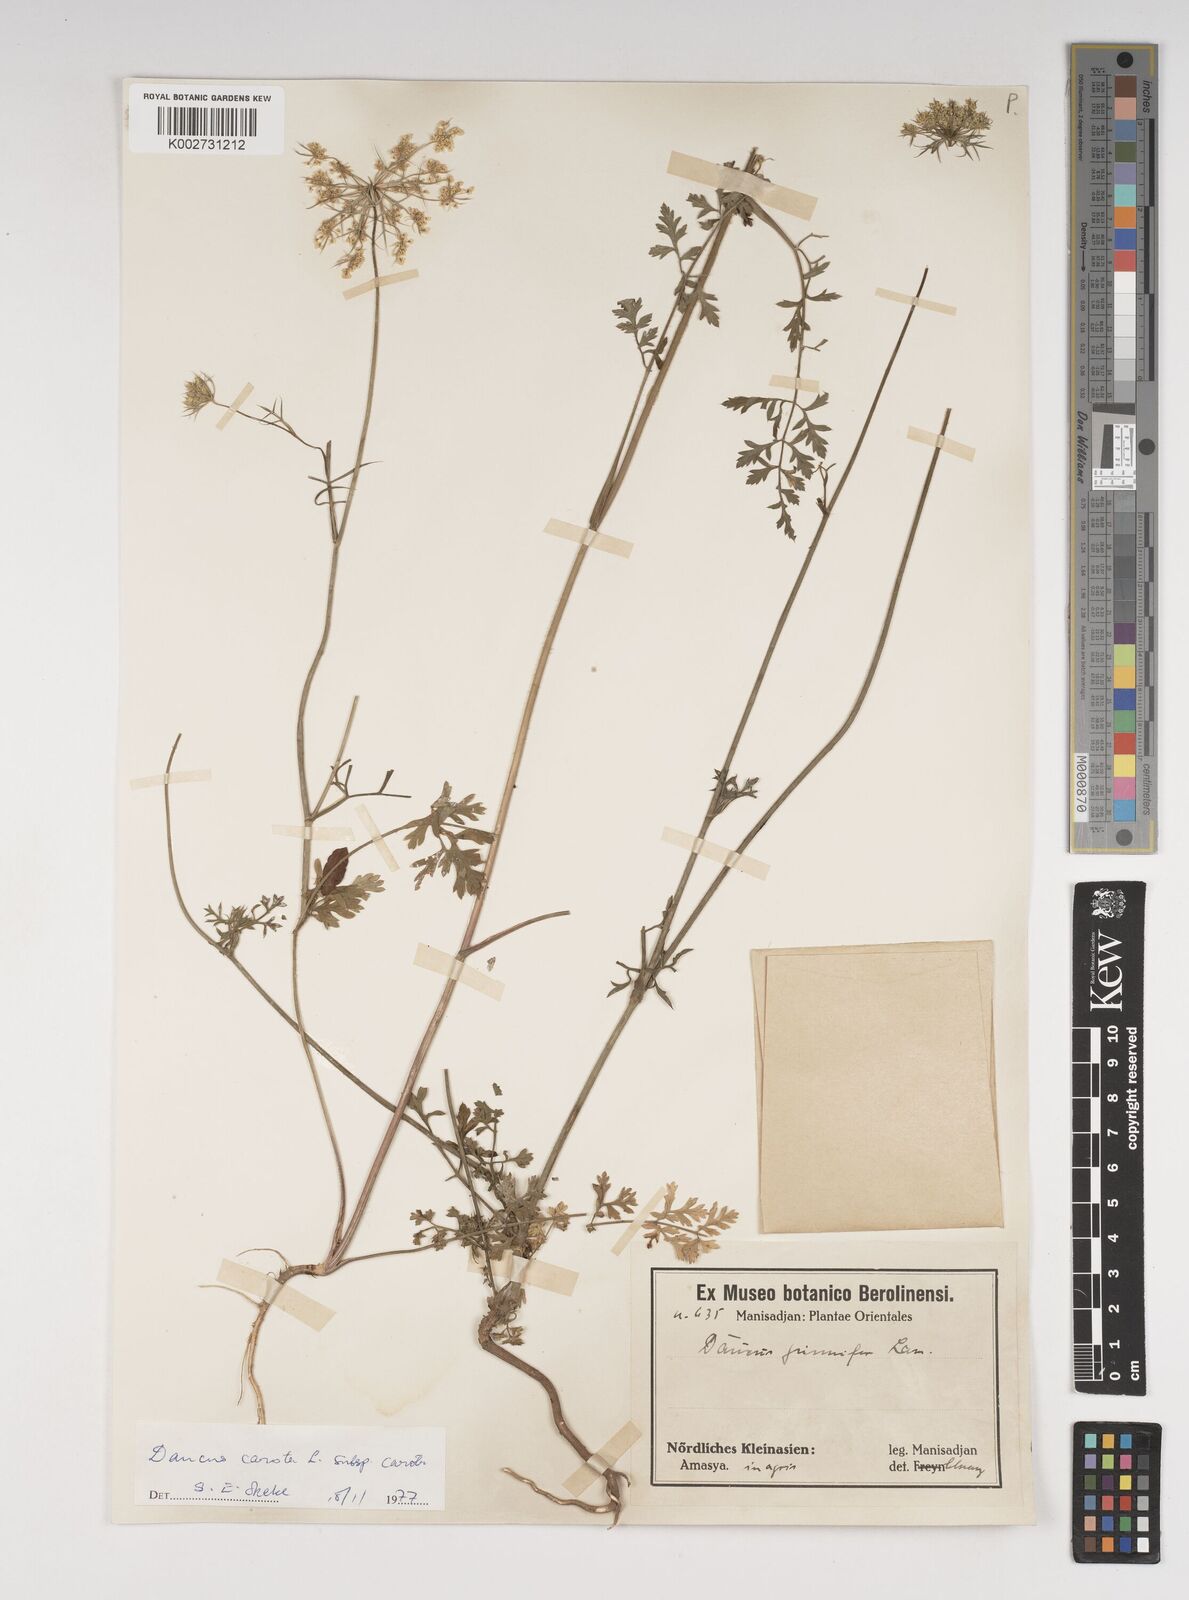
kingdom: Plantae
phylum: Tracheophyta
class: Magnoliopsida
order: Apiales
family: Apiaceae
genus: Daucus
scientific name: Daucus carota
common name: Wild carrot
